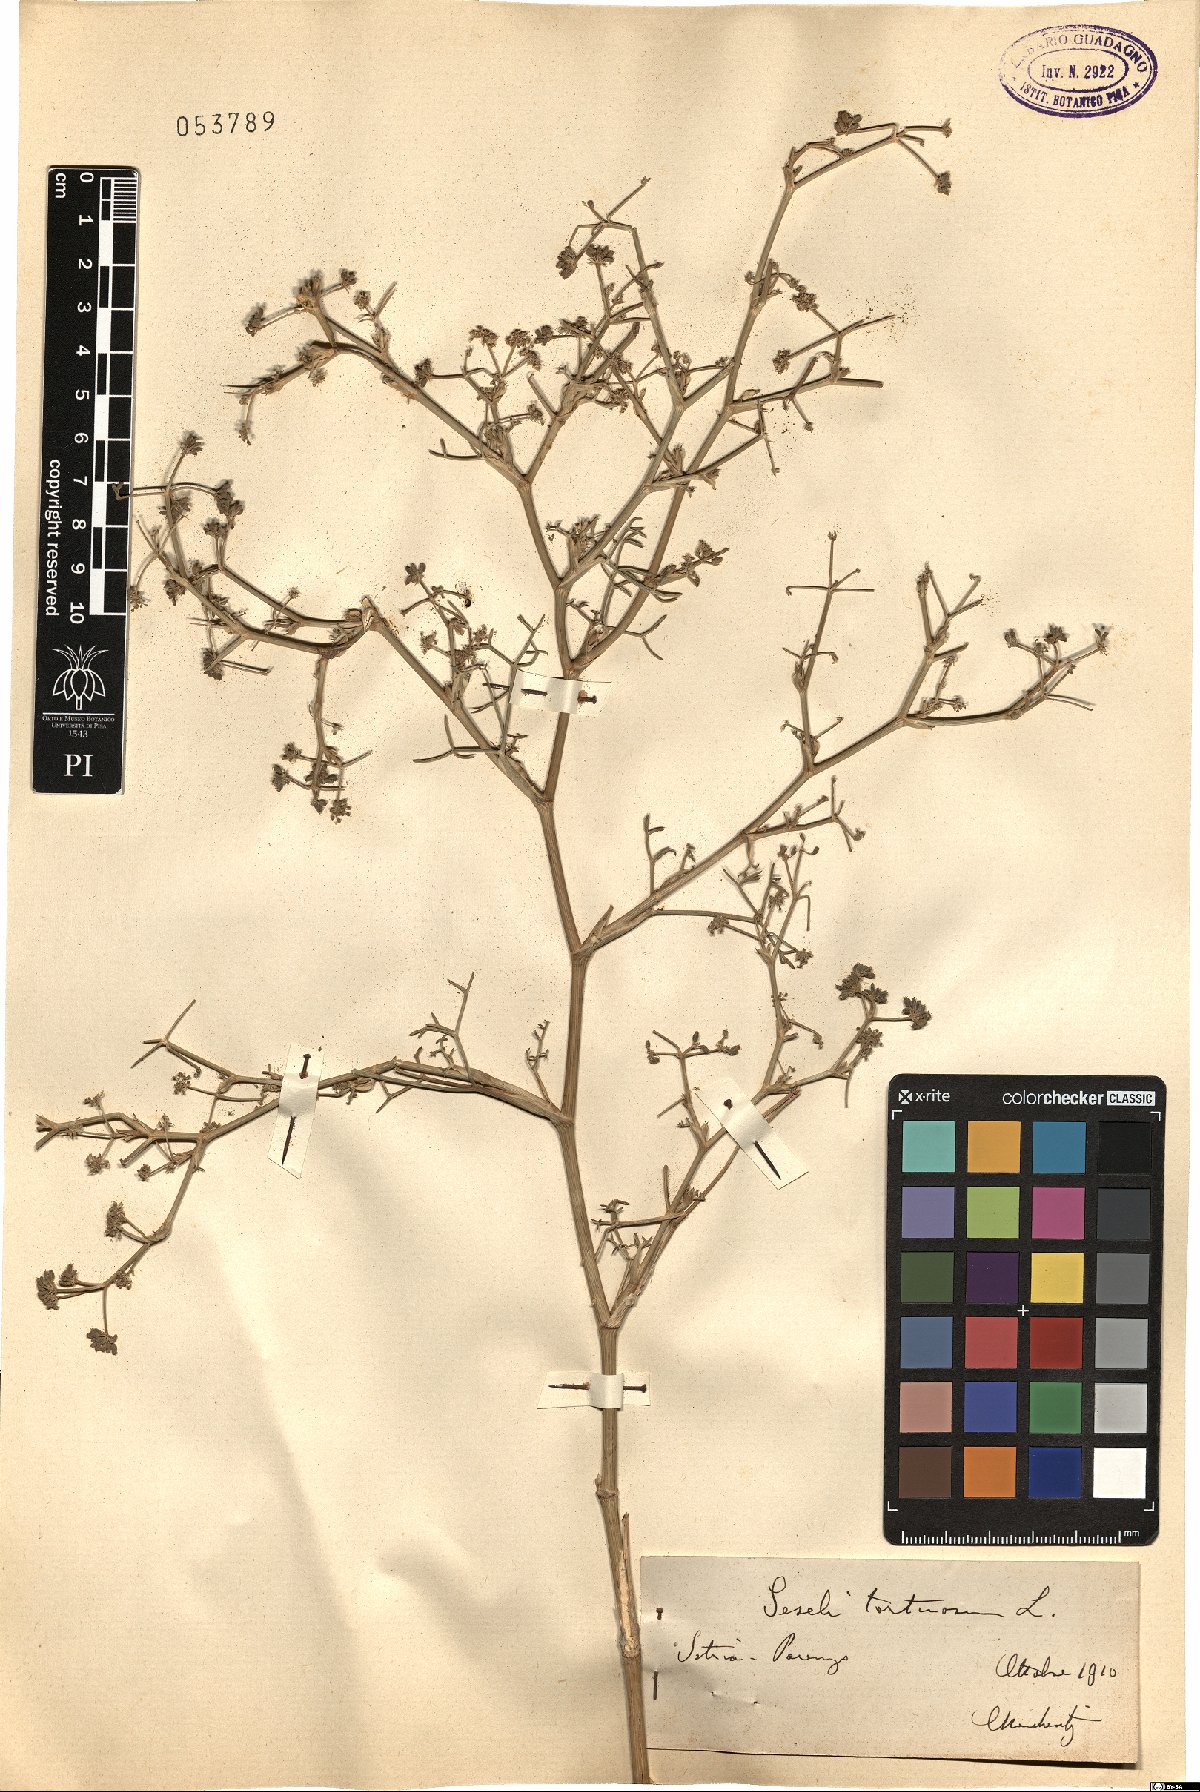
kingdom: Plantae
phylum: Tracheophyta
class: Magnoliopsida
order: Apiales
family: Apiaceae
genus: Seseli
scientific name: Seseli tortuosum
